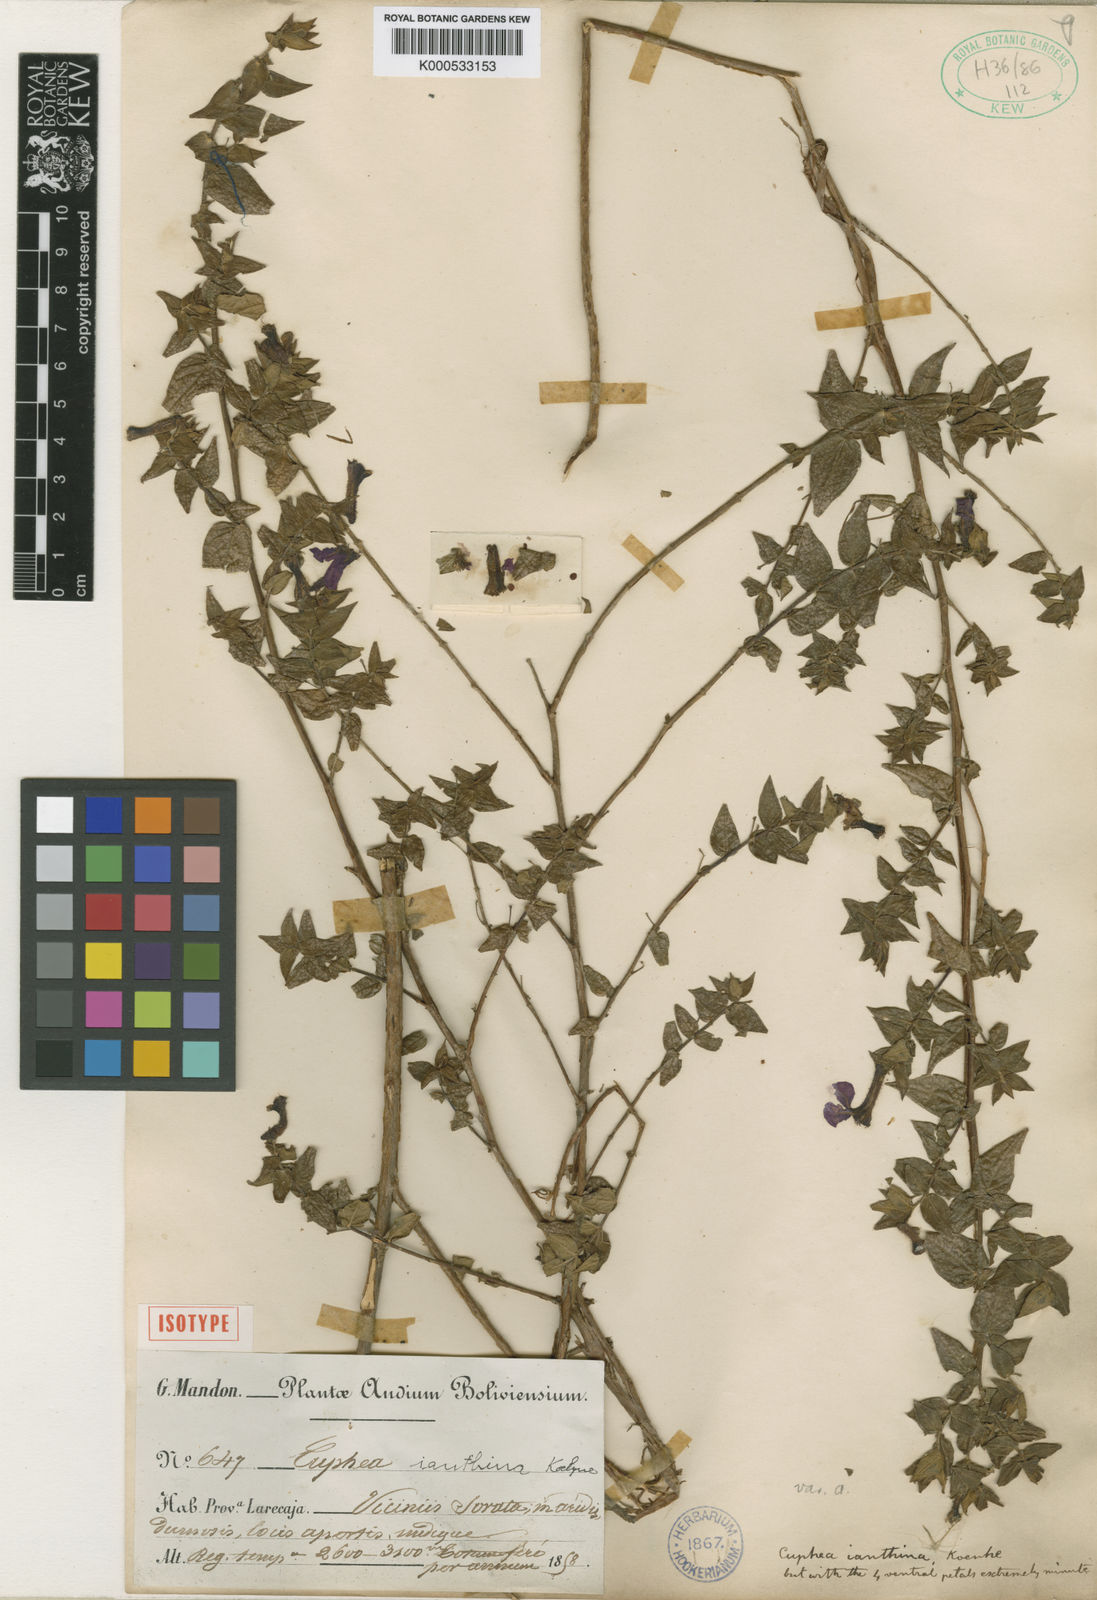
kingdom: Plantae
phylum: Tracheophyta
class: Magnoliopsida
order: Myrtales
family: Lythraceae
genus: Cuphea
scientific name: Cuphea cordata
